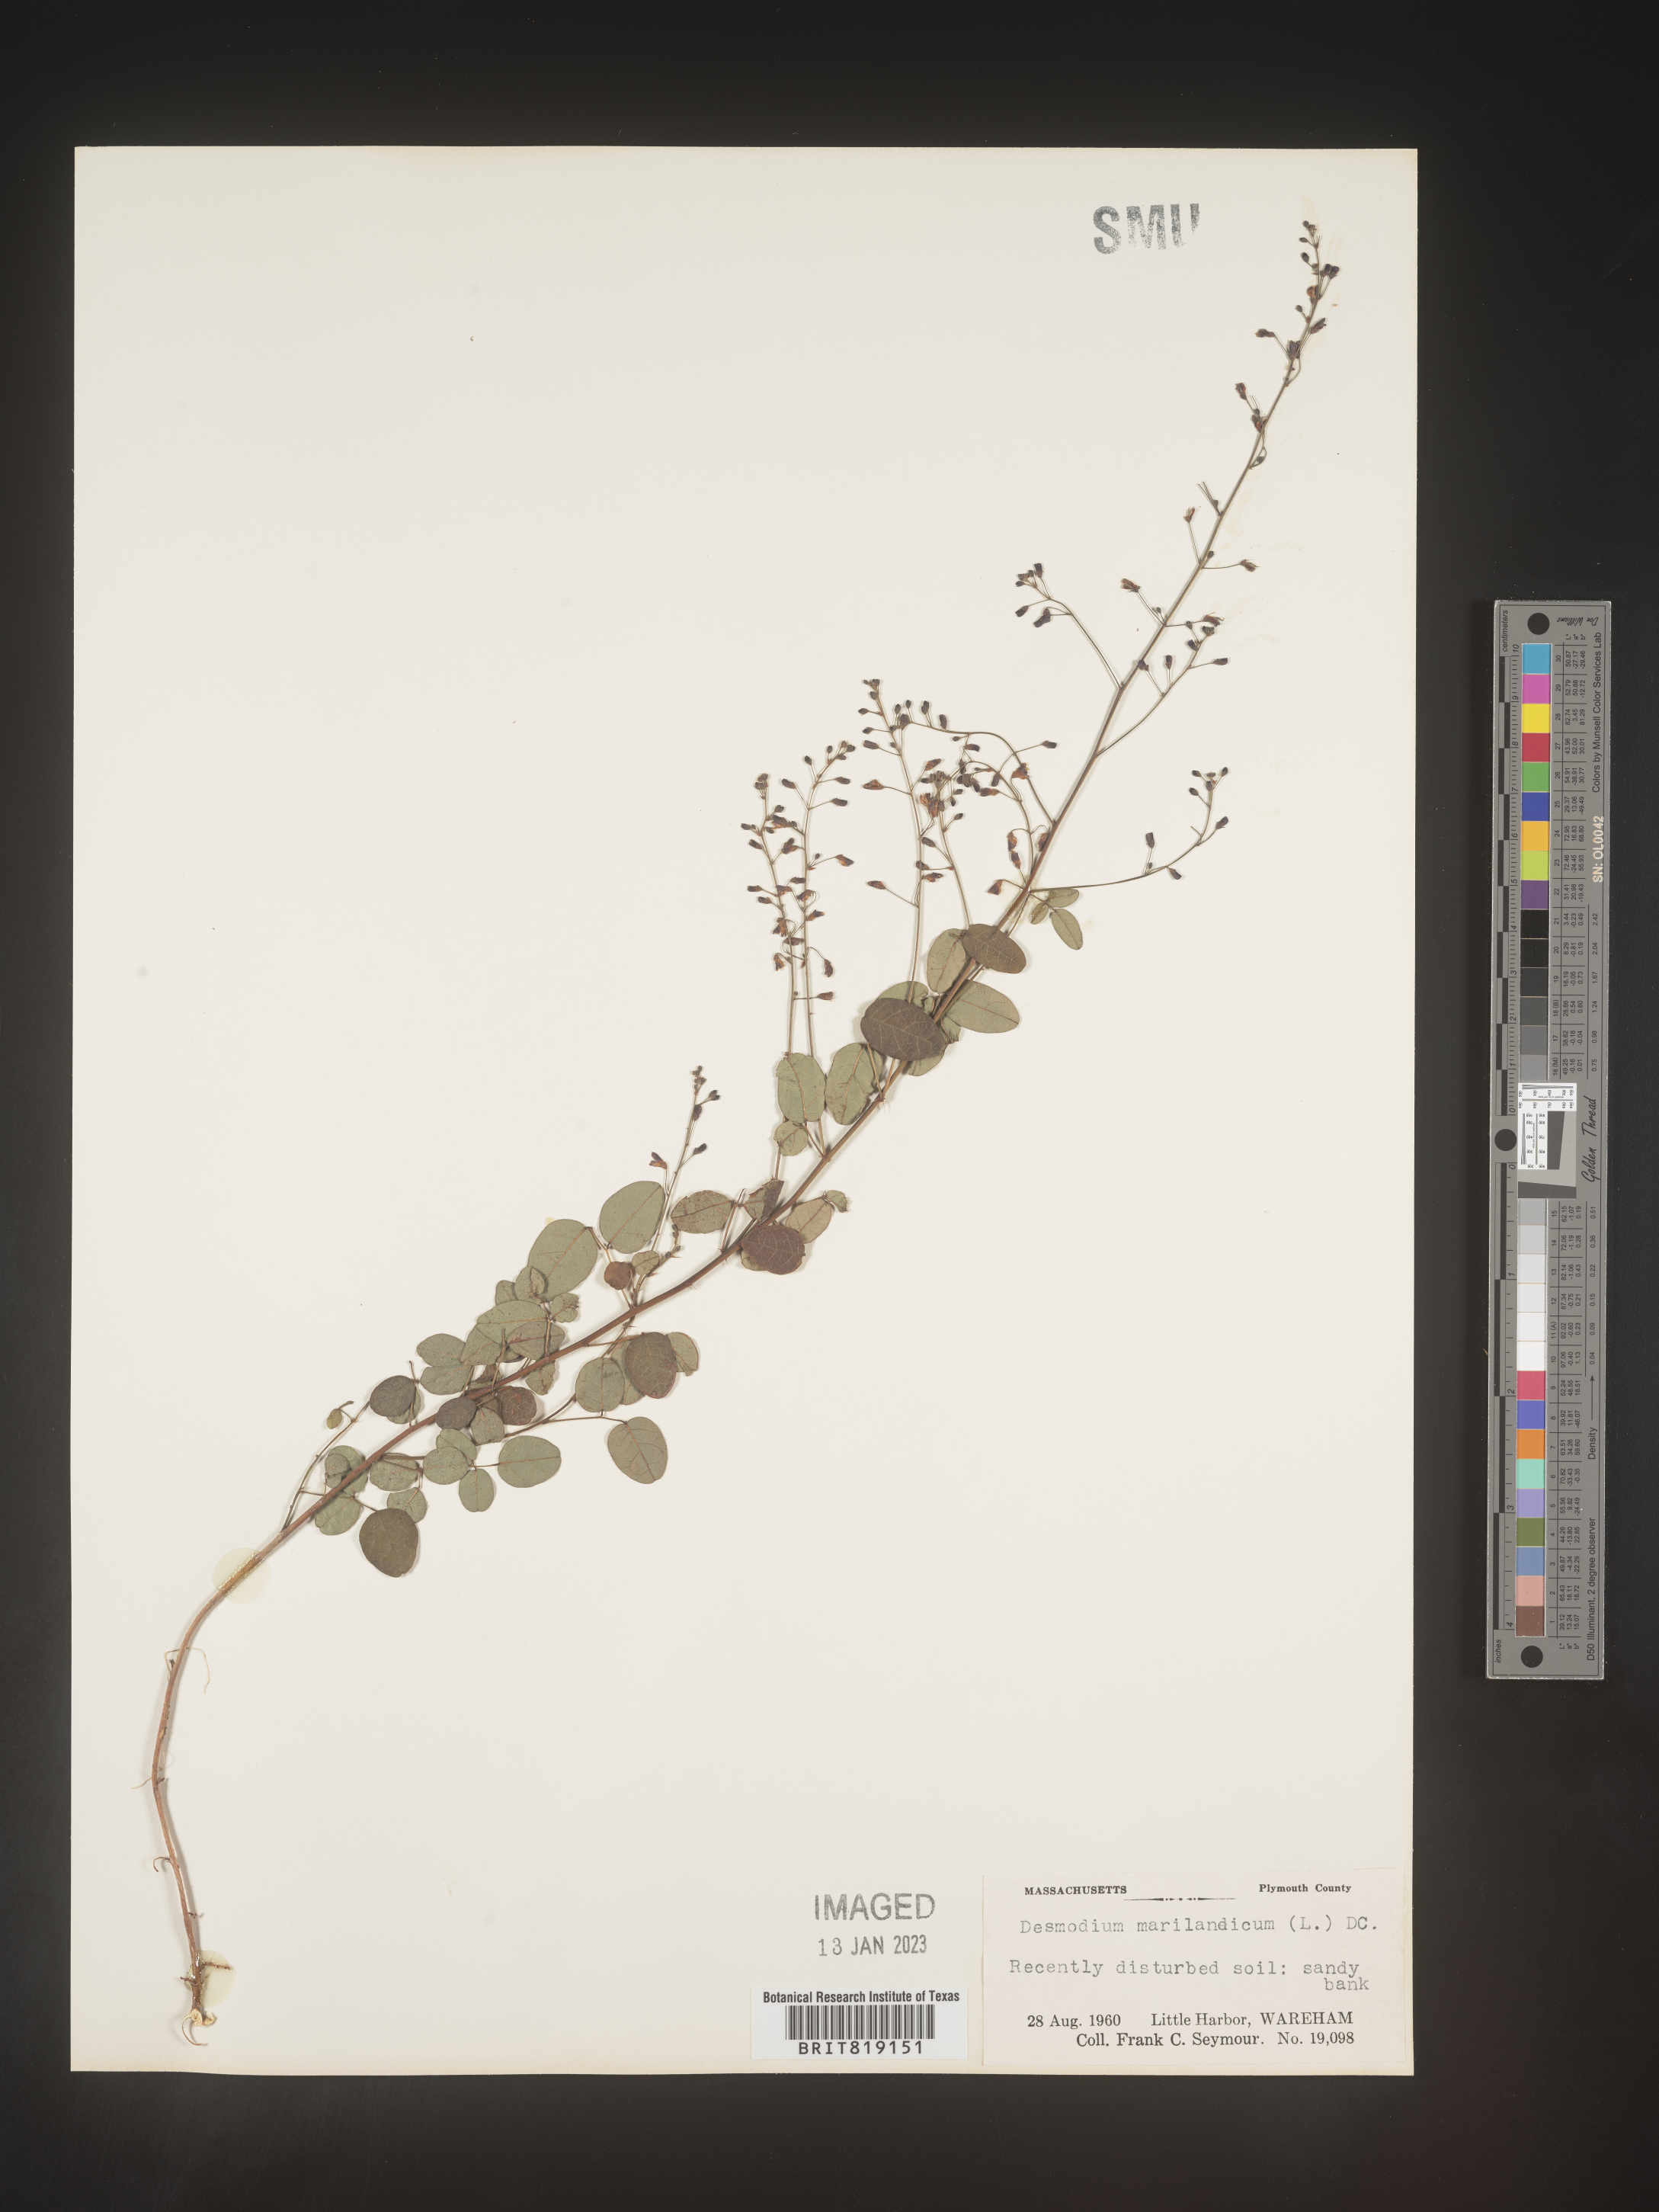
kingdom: Plantae
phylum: Tracheophyta
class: Magnoliopsida
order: Fabales
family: Fabaceae
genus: Desmodium
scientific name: Desmodium marilandicum
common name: Maryland tick-trefoil
